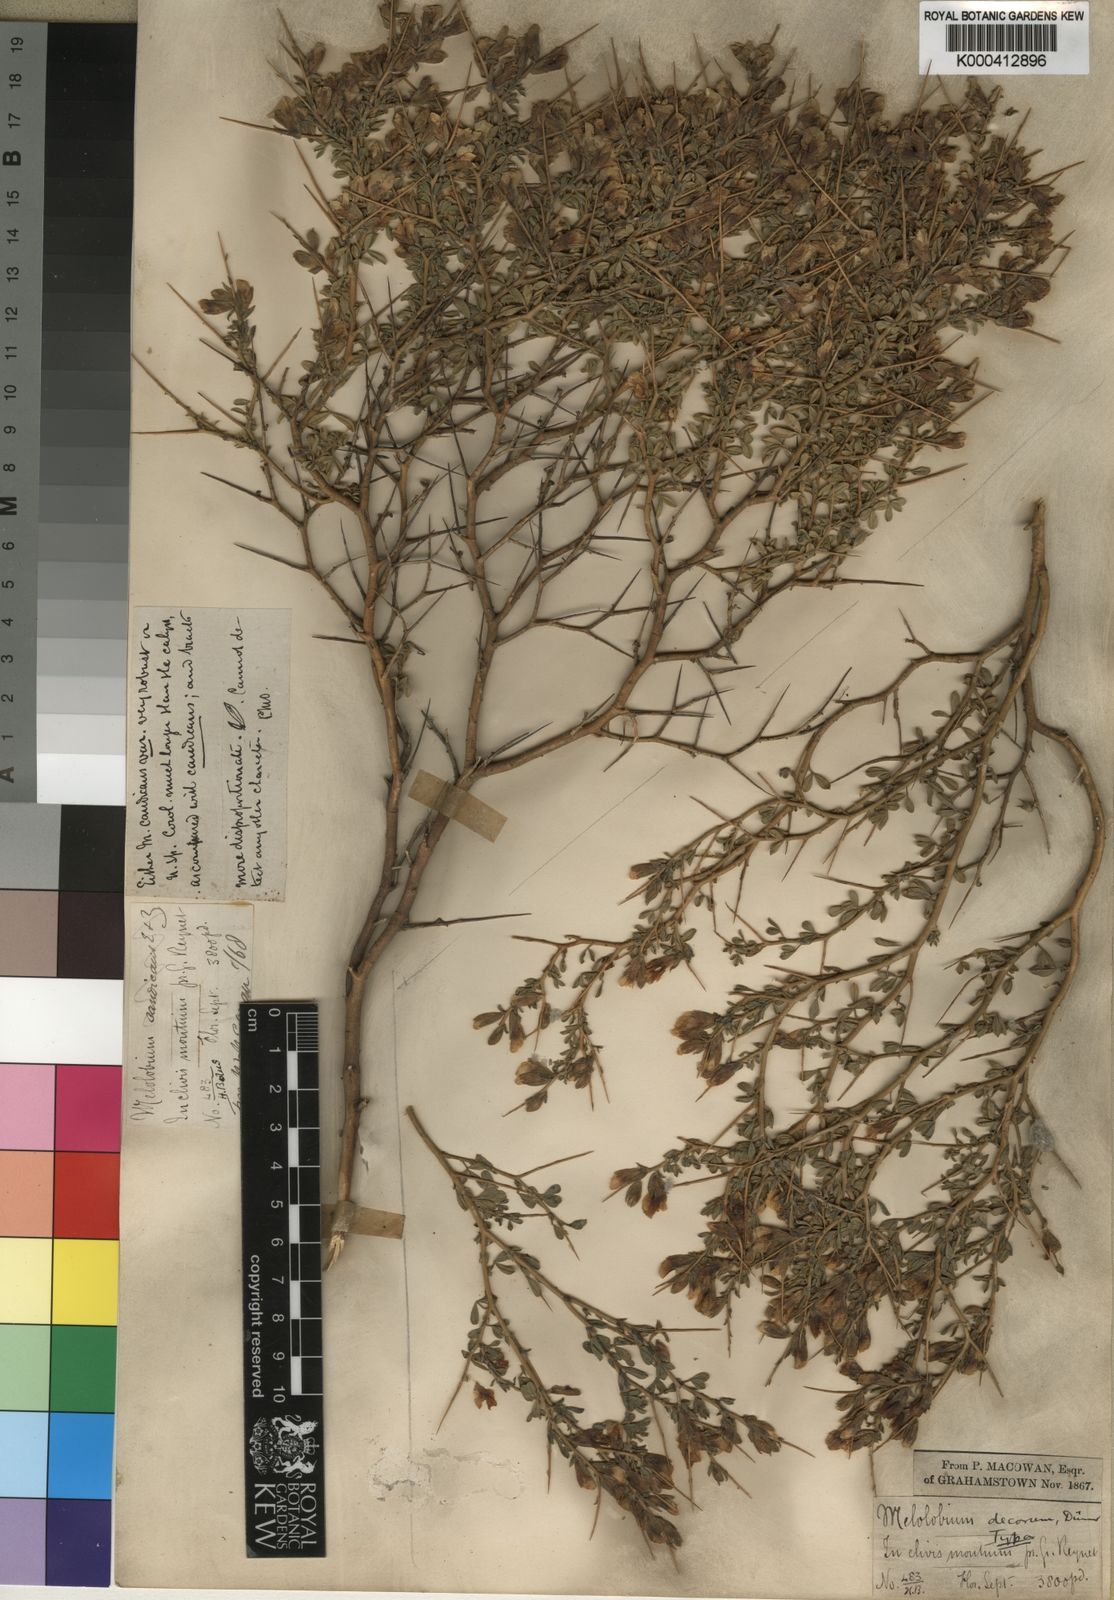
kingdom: Plantae
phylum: Tracheophyta
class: Magnoliopsida
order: Fabales
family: Fabaceae
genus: Melolobium
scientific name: Melolobium candicans
